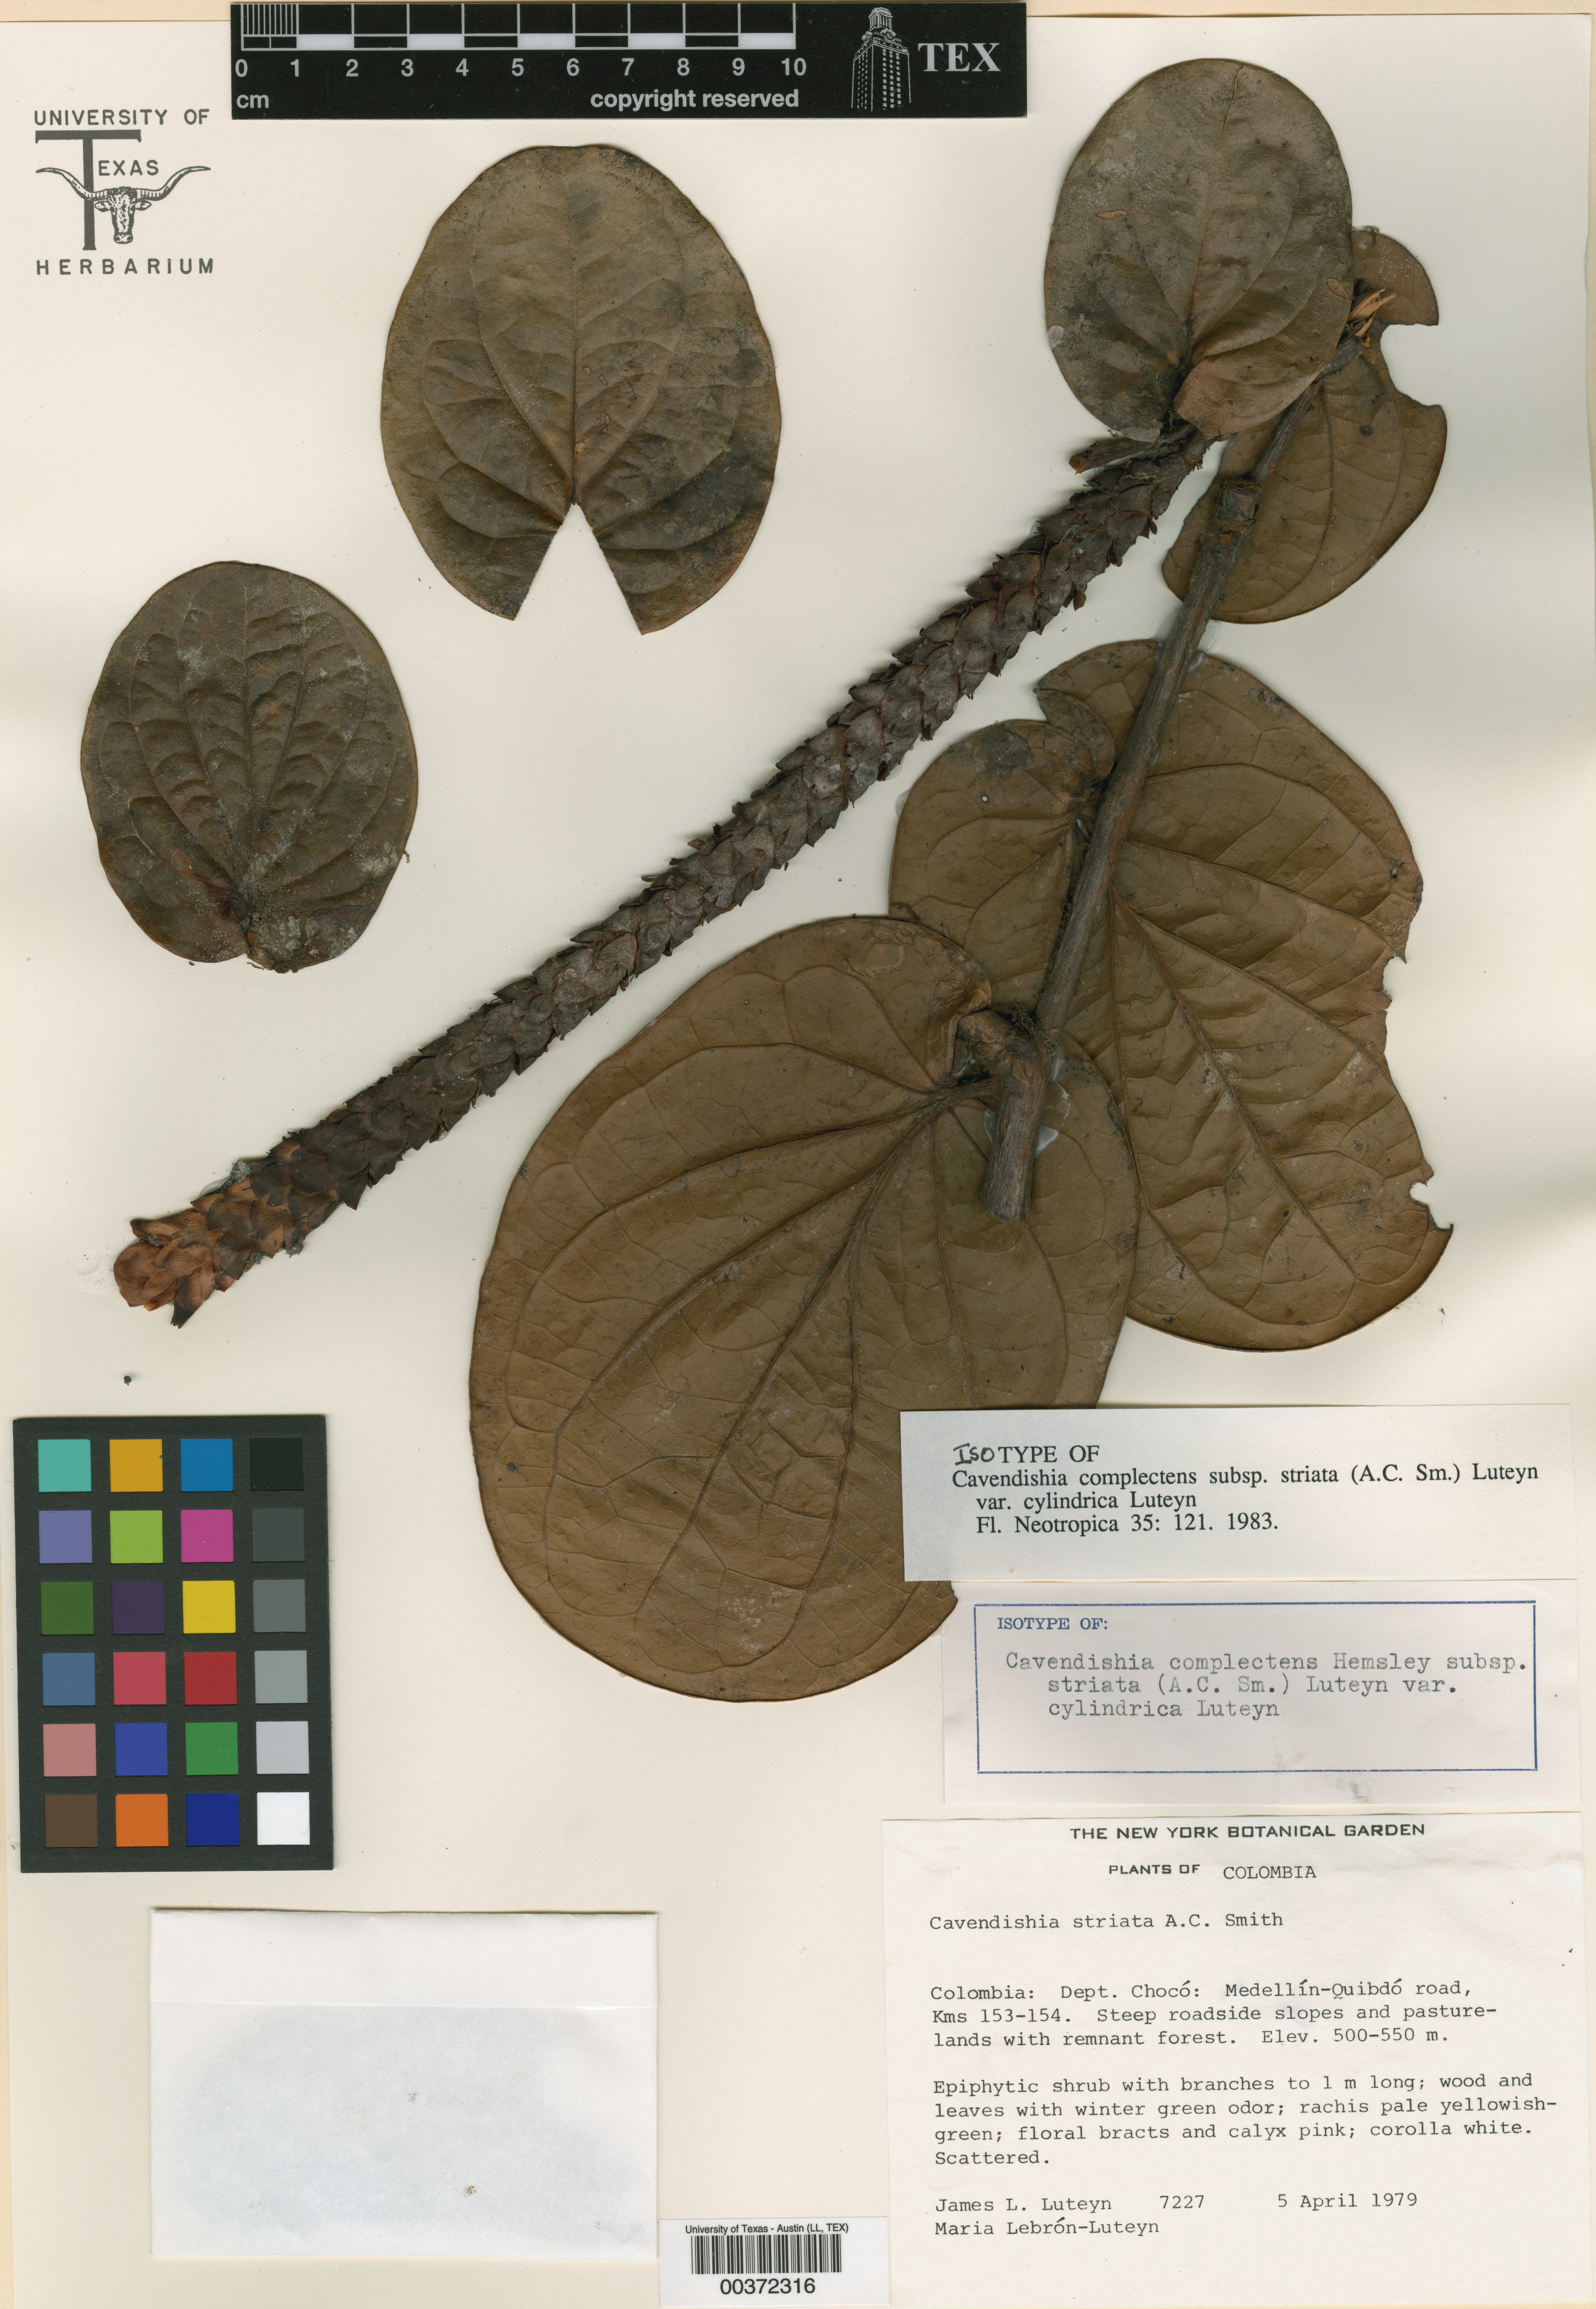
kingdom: Plantae
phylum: Tracheophyta
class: Magnoliopsida
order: Ericales
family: Ericaceae
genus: Cavendishia
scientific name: Cavendishia complectens
